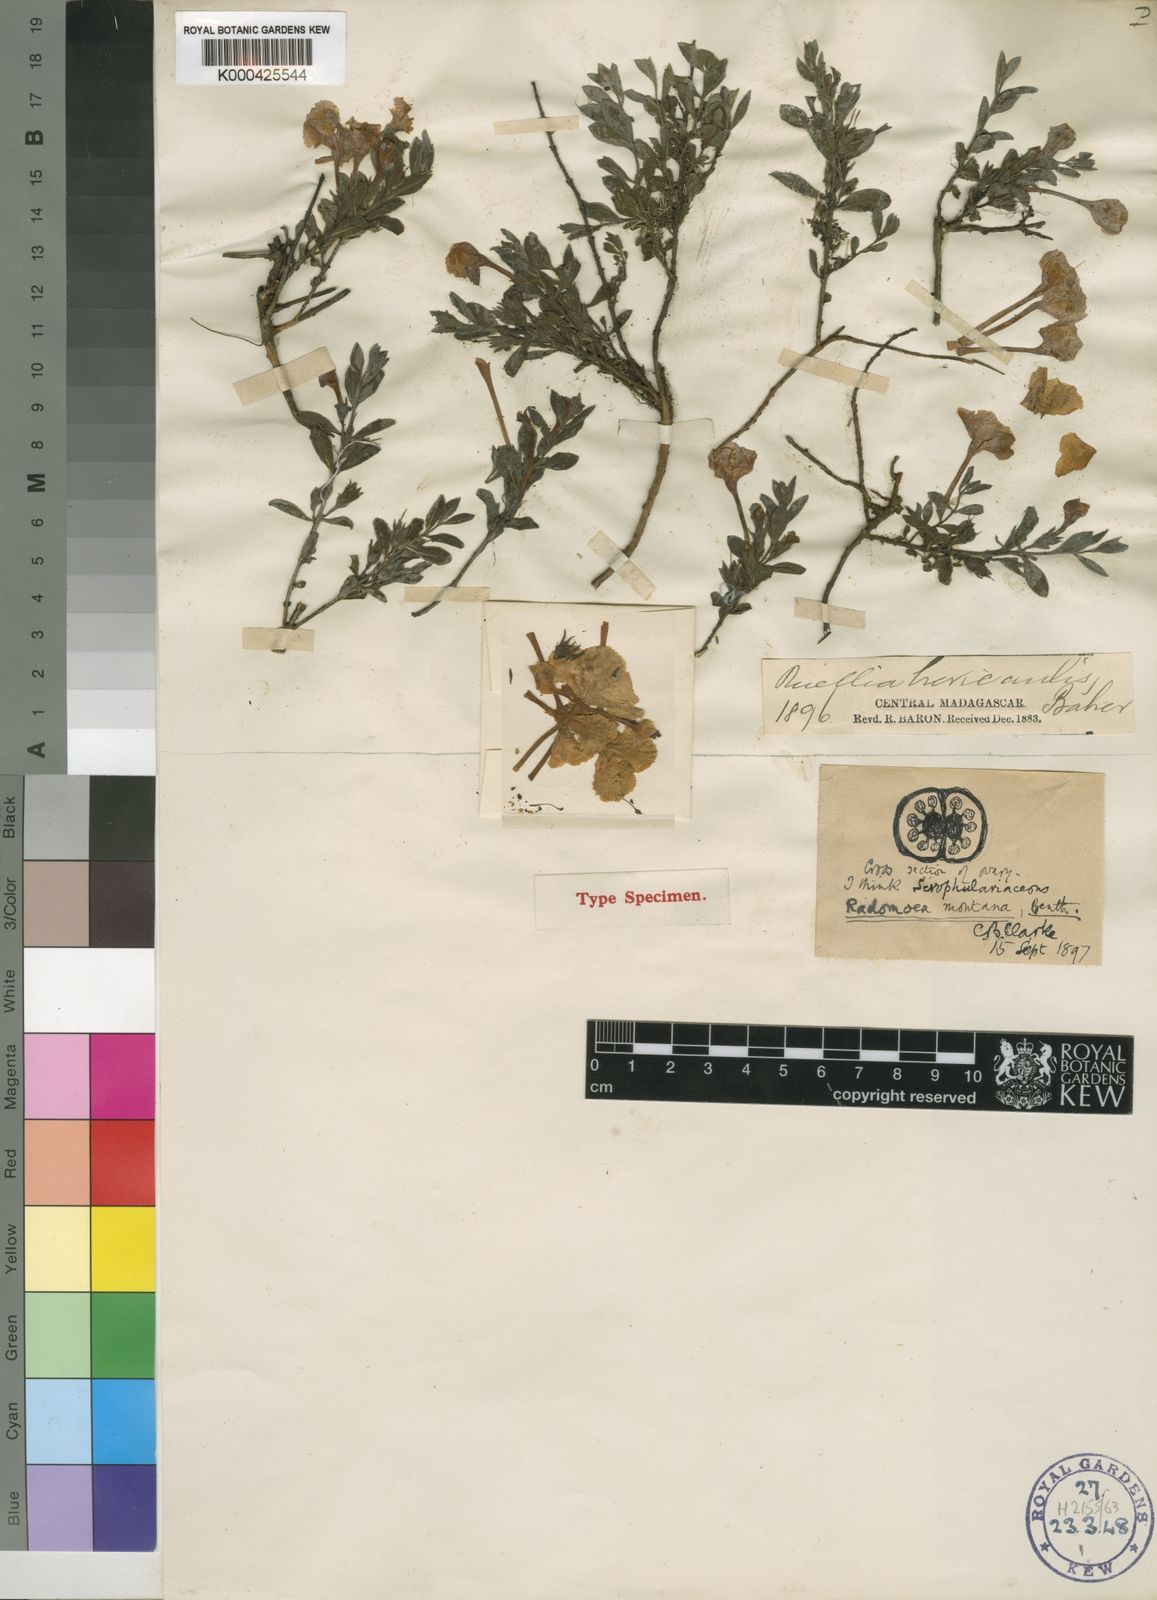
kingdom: Plantae
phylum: Tracheophyta
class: Magnoliopsida
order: Lamiales
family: Orobanchaceae
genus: Radamaea
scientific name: Radamaea montana
